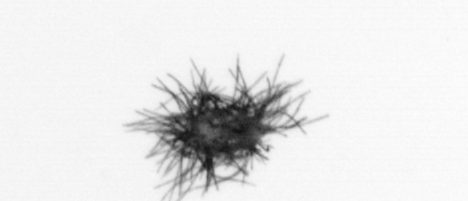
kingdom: Bacteria
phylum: Cyanobacteria
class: Cyanobacteriia
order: Cyanobacteriales
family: Microcoleaceae
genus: Trichodesmium
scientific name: Trichodesmium
